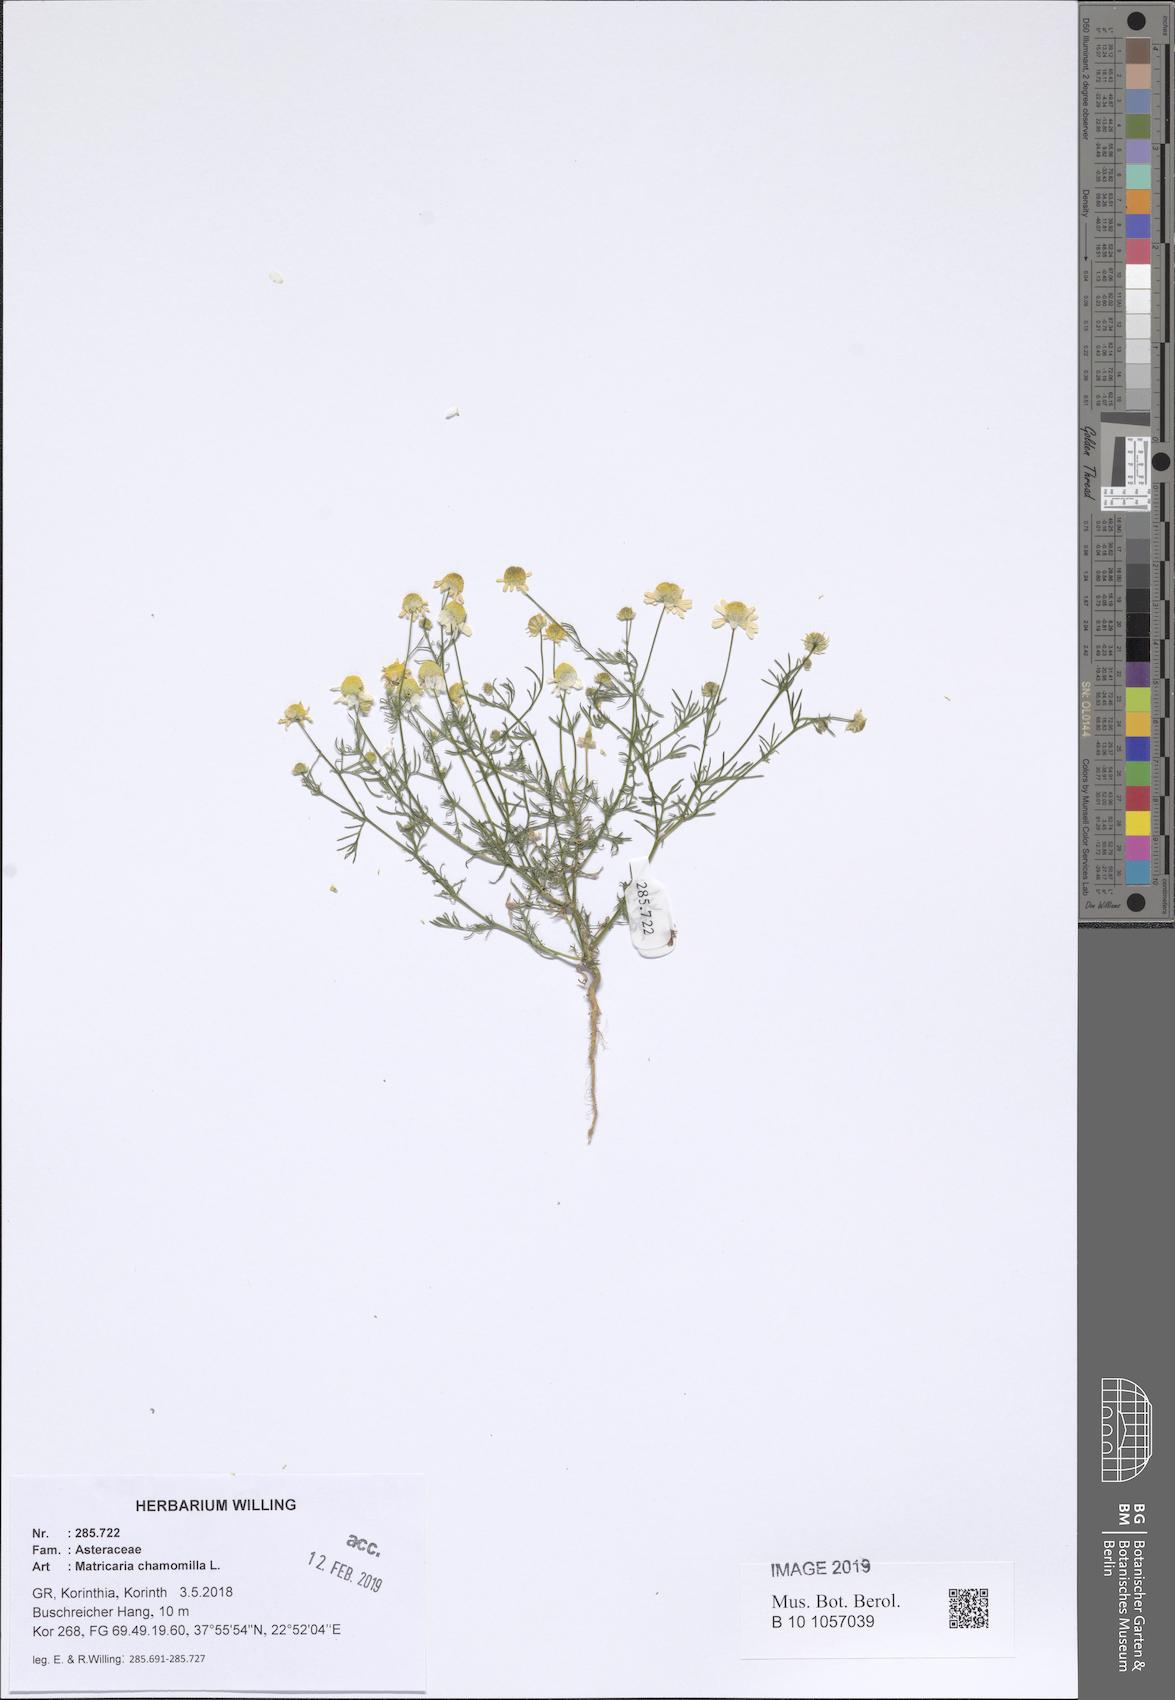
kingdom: Plantae
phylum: Tracheophyta
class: Magnoliopsida
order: Asterales
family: Asteraceae
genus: Matricaria
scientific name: Matricaria chamomilla
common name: Scented mayweed
